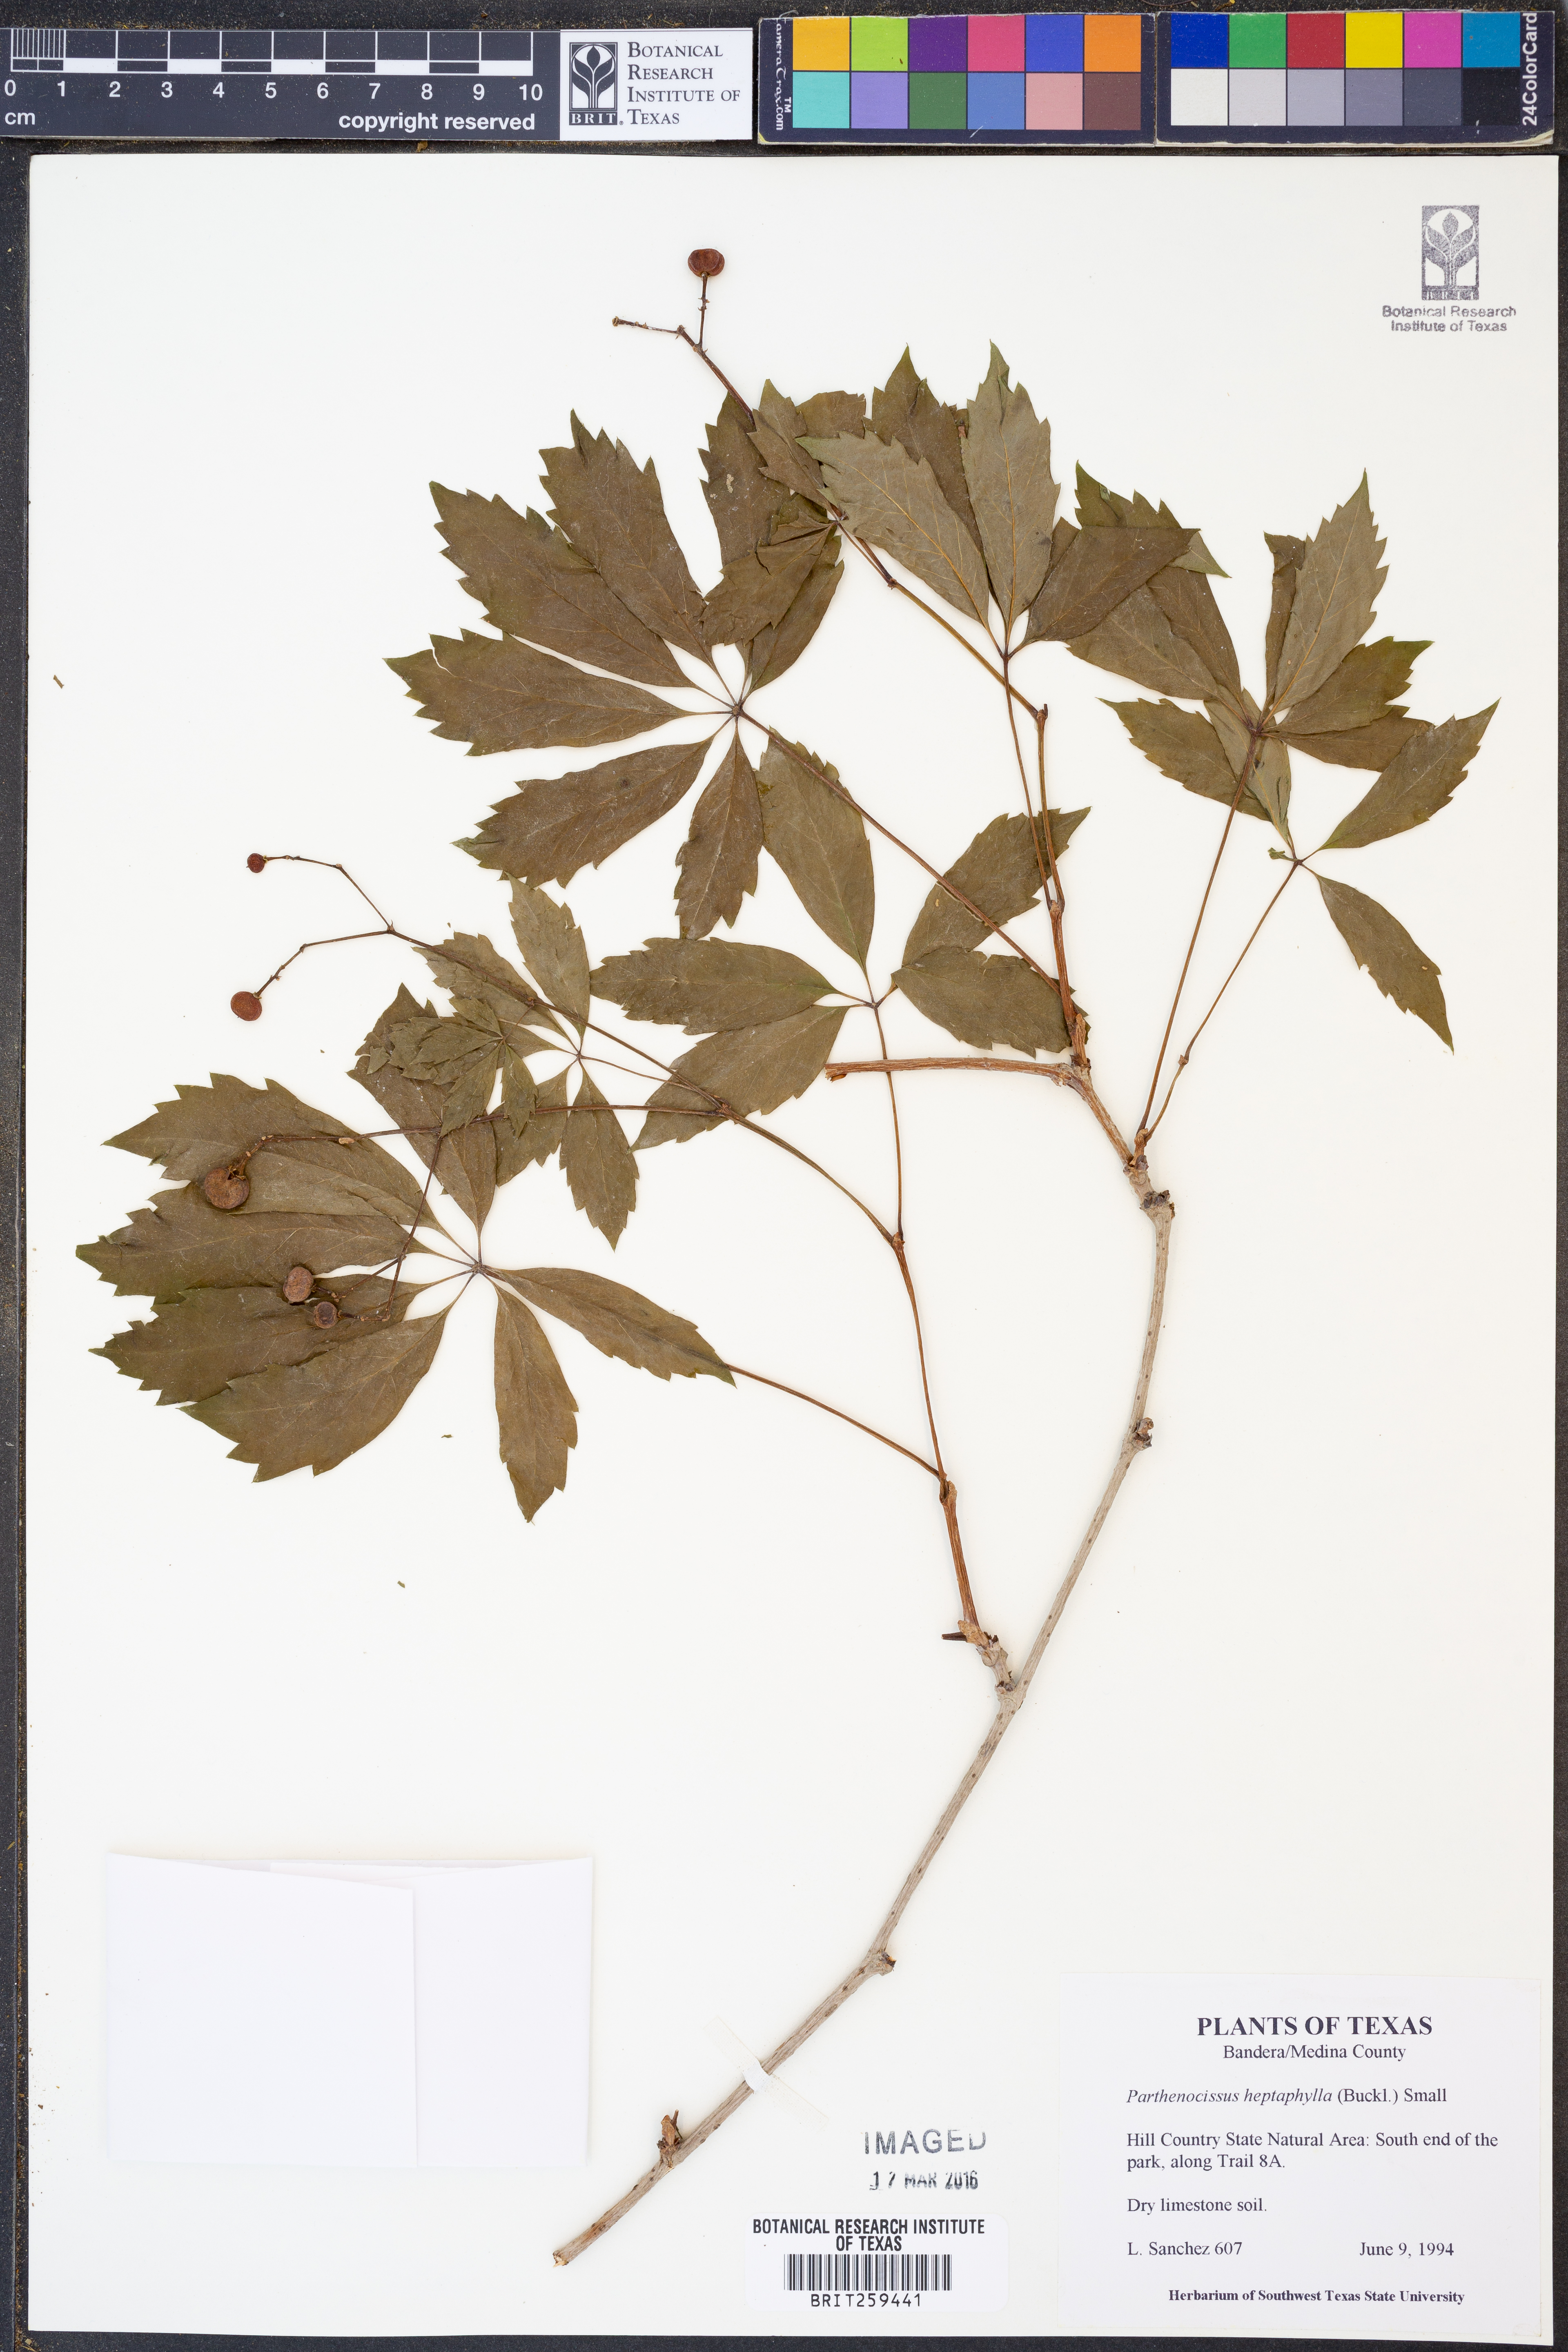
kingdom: Plantae
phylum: Tracheophyta
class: Magnoliopsida
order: Vitales
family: Vitaceae
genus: Parthenocissus
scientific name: Parthenocissus heptaphylla
